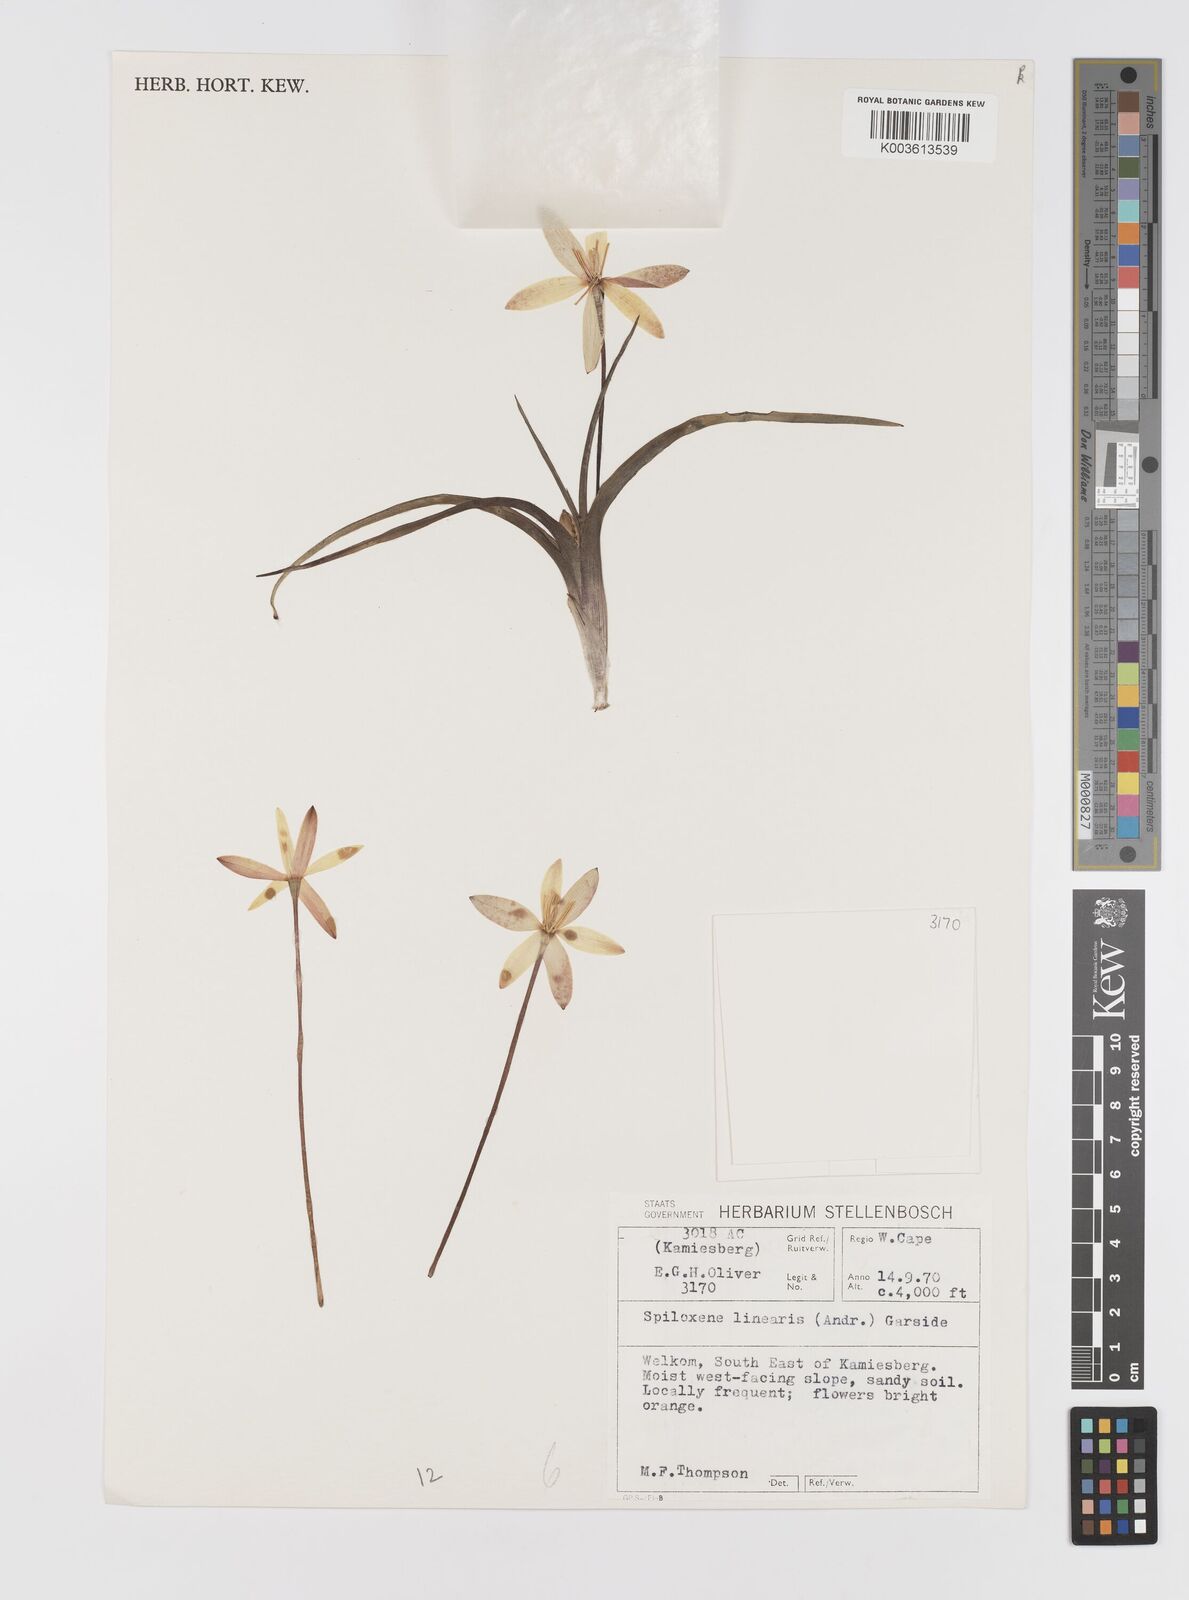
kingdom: Plantae
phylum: Tracheophyta
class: Liliopsida
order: Asparagales
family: Hypoxidaceae
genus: Pauridia
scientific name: Pauridia linearis
